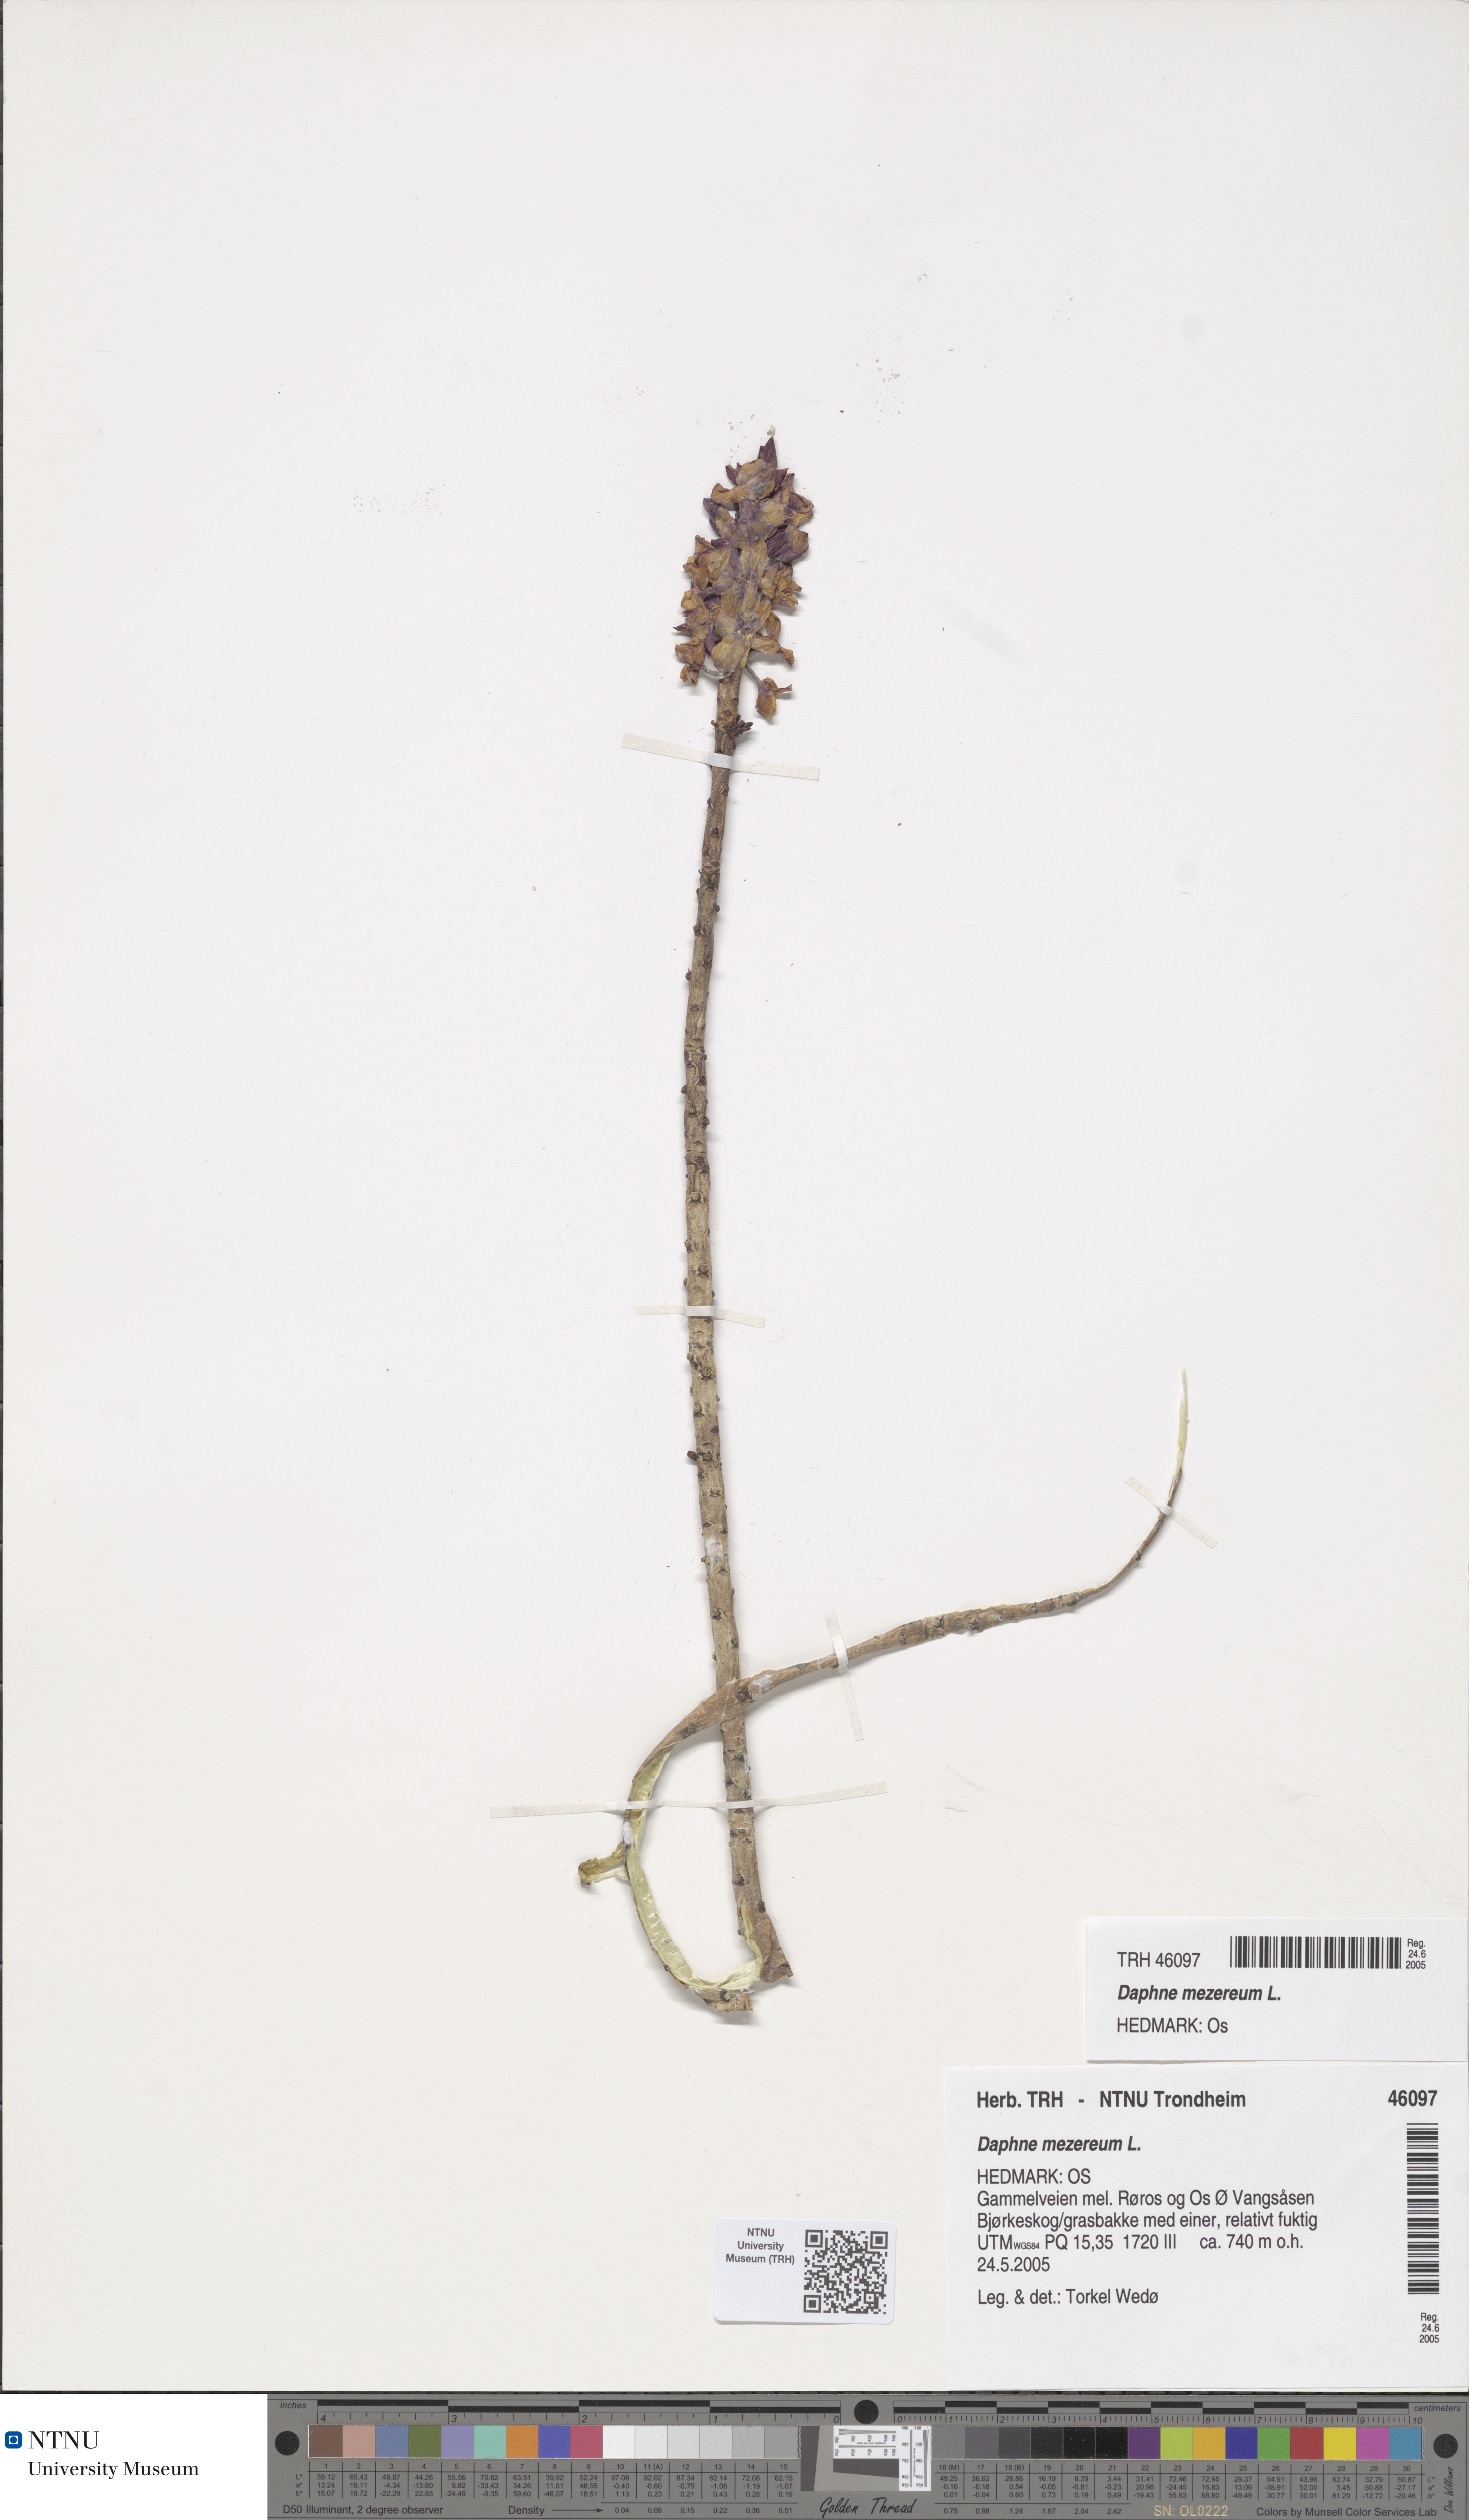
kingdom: Plantae
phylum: Tracheophyta
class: Magnoliopsida
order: Malvales
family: Thymelaeaceae
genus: Daphne
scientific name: Daphne mezereum
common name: Mezereon
